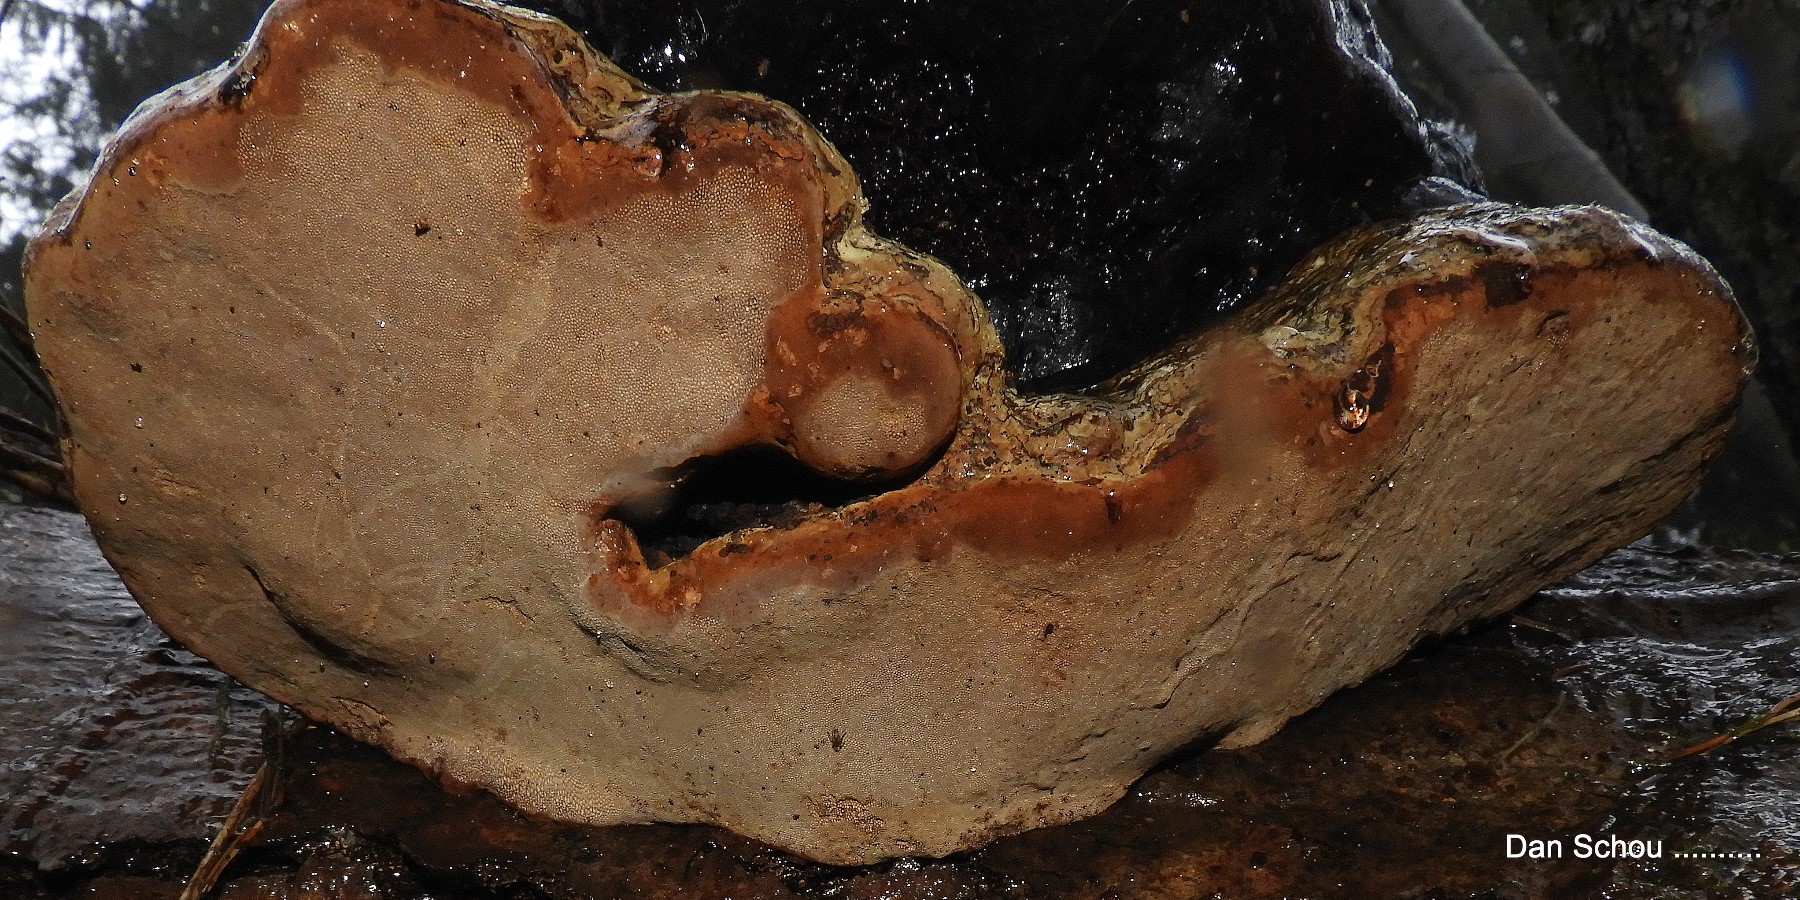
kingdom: Fungi
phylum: Basidiomycota
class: Agaricomycetes
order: Polyporales
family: Polyporaceae
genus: Fomes
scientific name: Fomes fomentarius
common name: tøndersvamp
